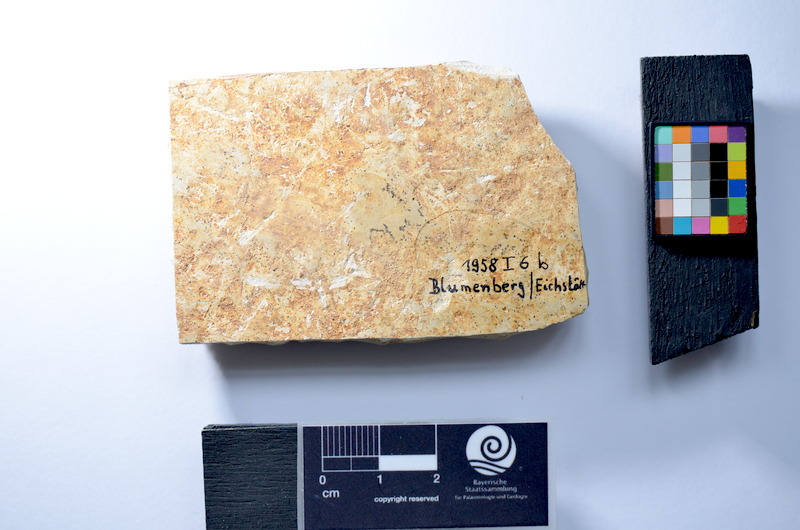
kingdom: Animalia
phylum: Chordata
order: Salmoniformes
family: Orthogonikleithridae
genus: Leptolepides
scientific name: Leptolepides sprattiformis
